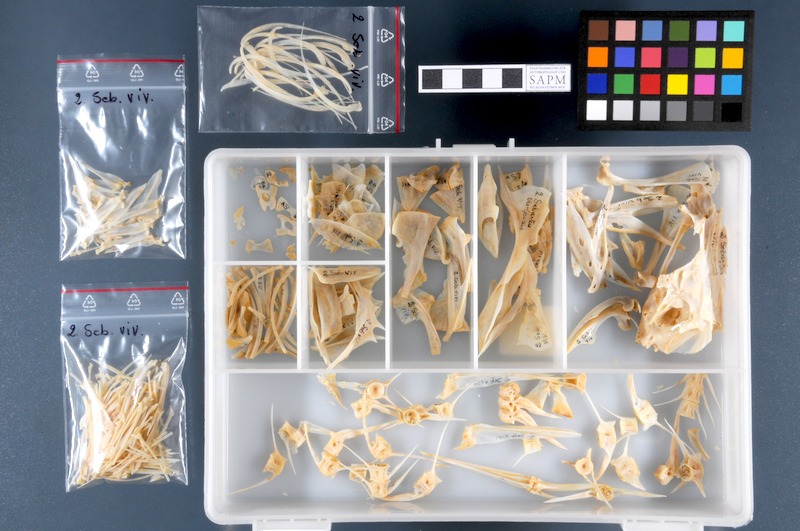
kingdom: Animalia
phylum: Chordata
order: Scorpaeniformes
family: Sebastidae
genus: Sebastes
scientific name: Sebastes viviparus
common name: Norway haddock
